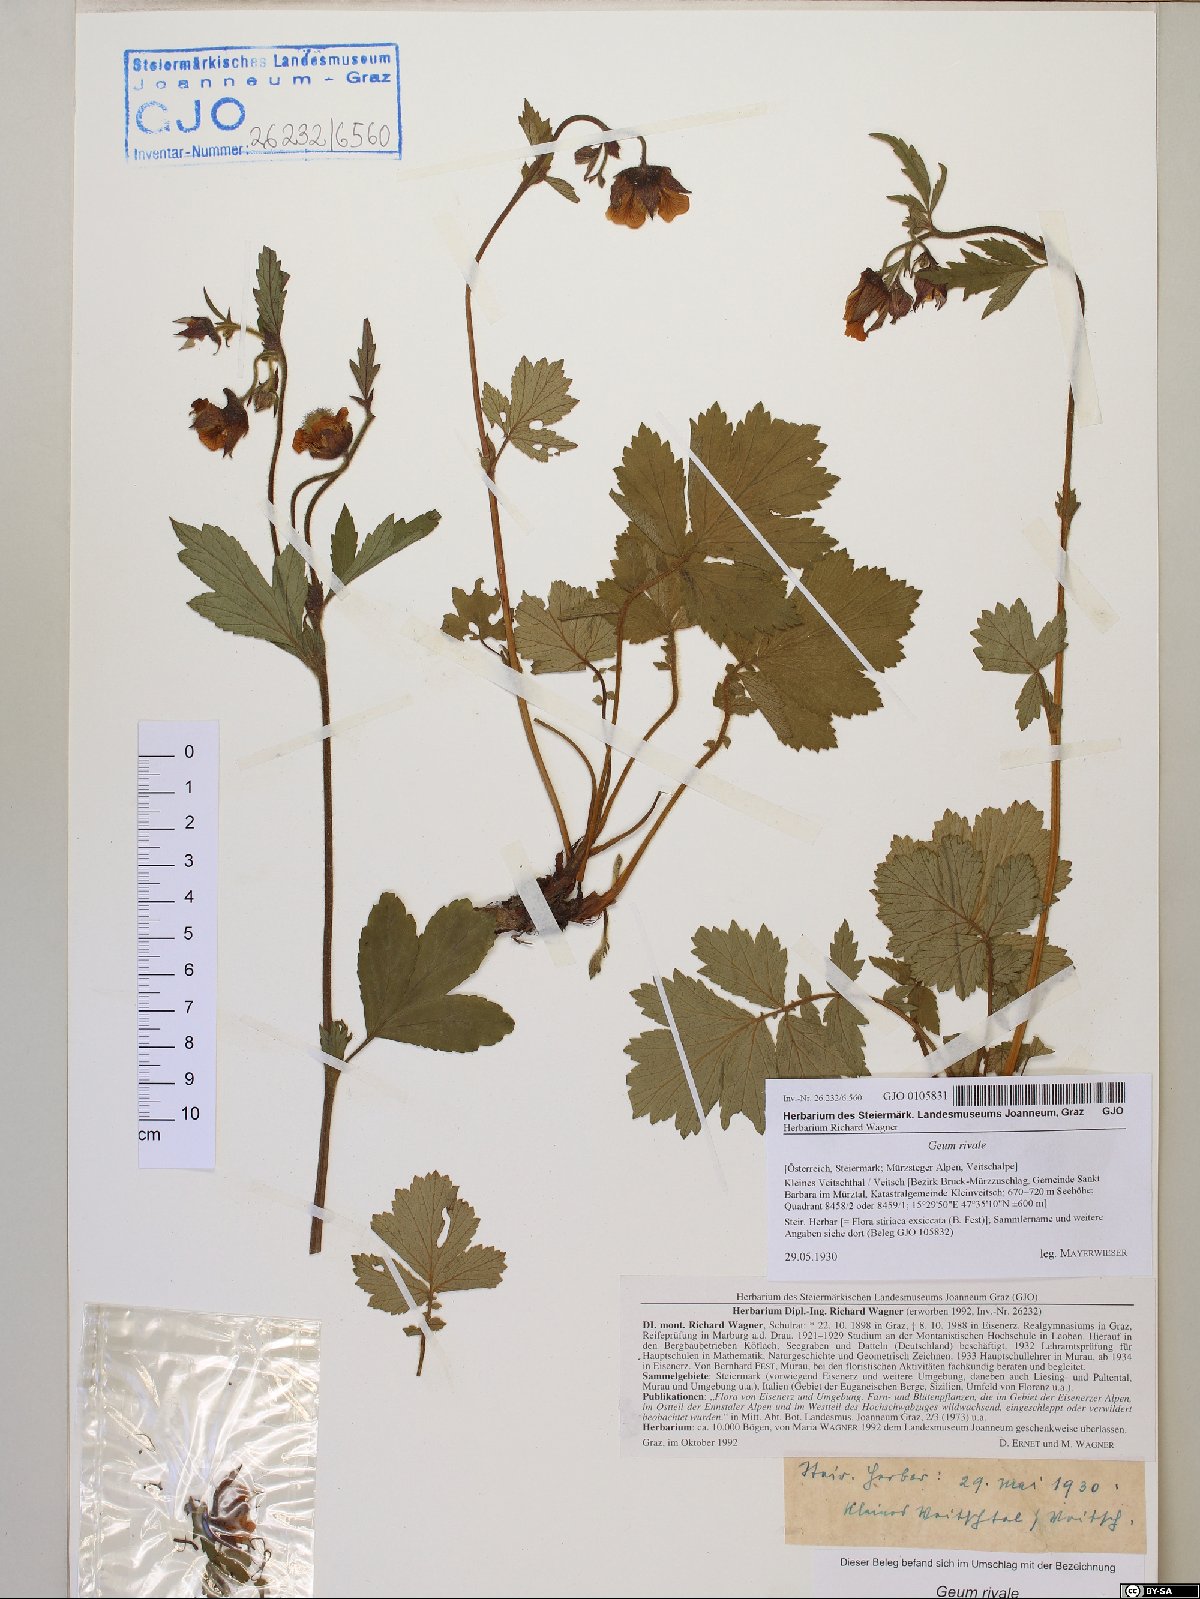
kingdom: Plantae
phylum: Tracheophyta
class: Magnoliopsida
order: Rosales
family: Rosaceae
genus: Geum
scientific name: Geum rivale
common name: Water avens
